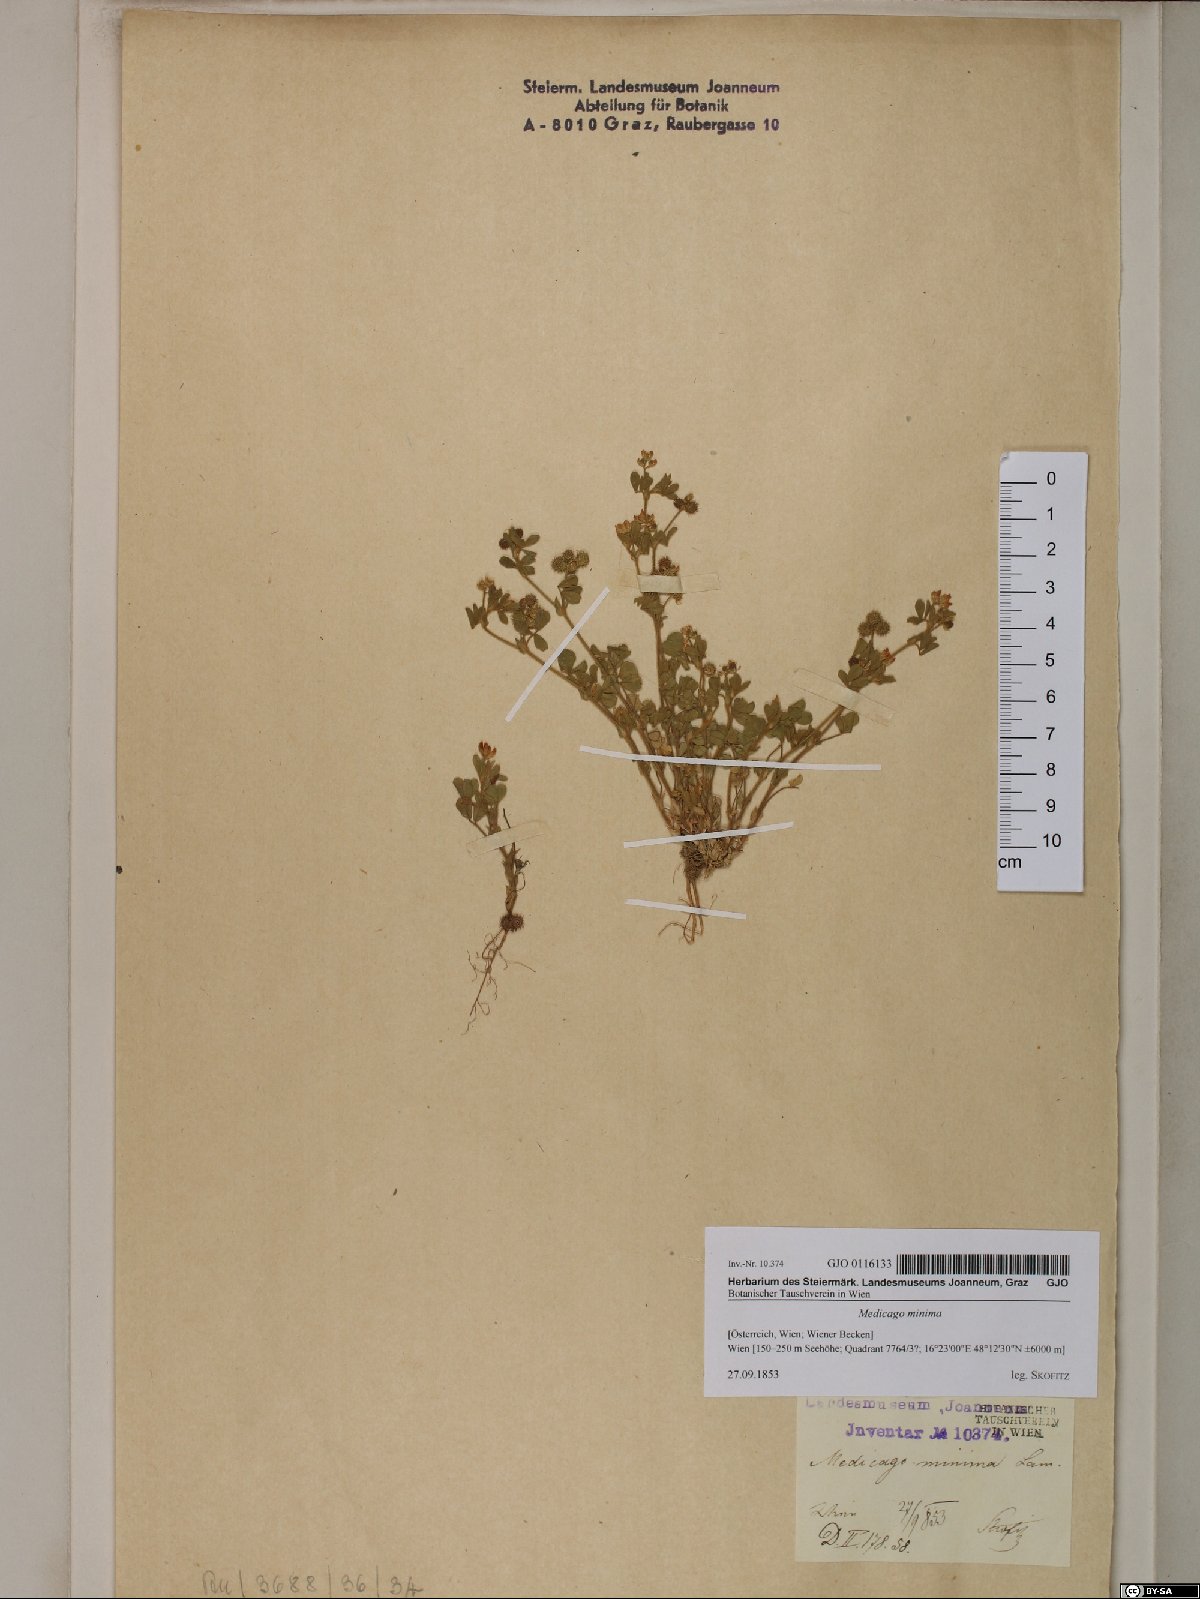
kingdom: Plantae
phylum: Tracheophyta
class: Magnoliopsida
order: Fabales
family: Fabaceae
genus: Medicago
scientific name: Medicago minima
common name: Little bur-clover
